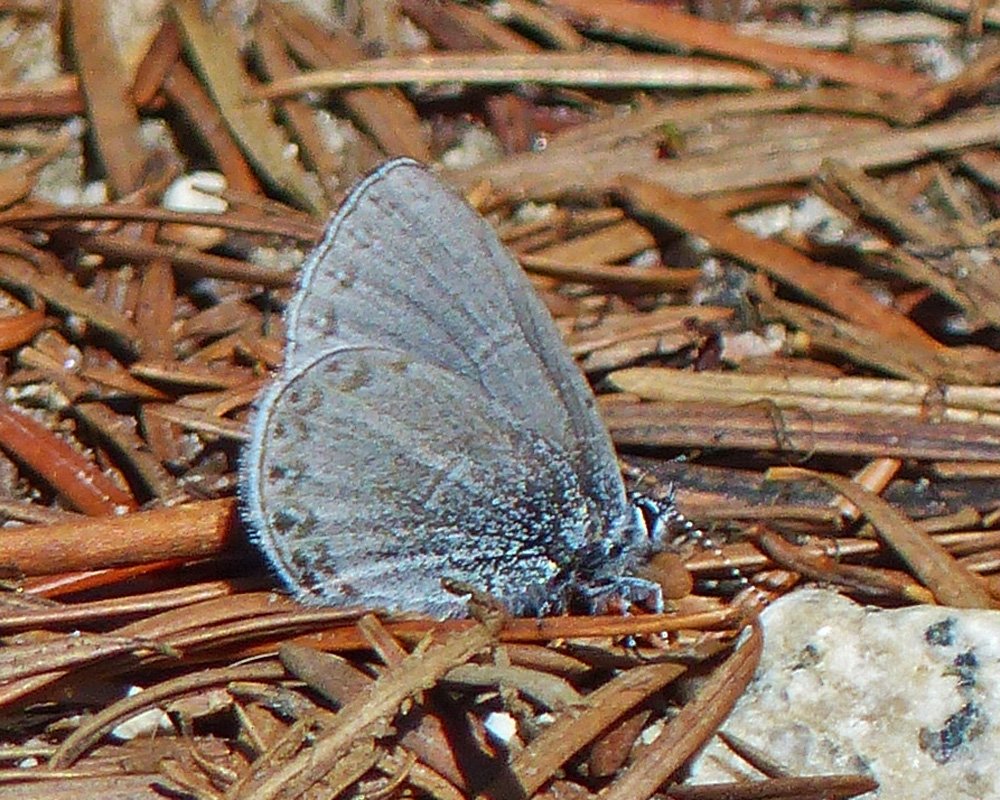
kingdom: Animalia
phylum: Arthropoda
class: Insecta
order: Lepidoptera
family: Lycaenidae
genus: Celastrina
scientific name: Celastrina ladon
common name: Echo Azure
